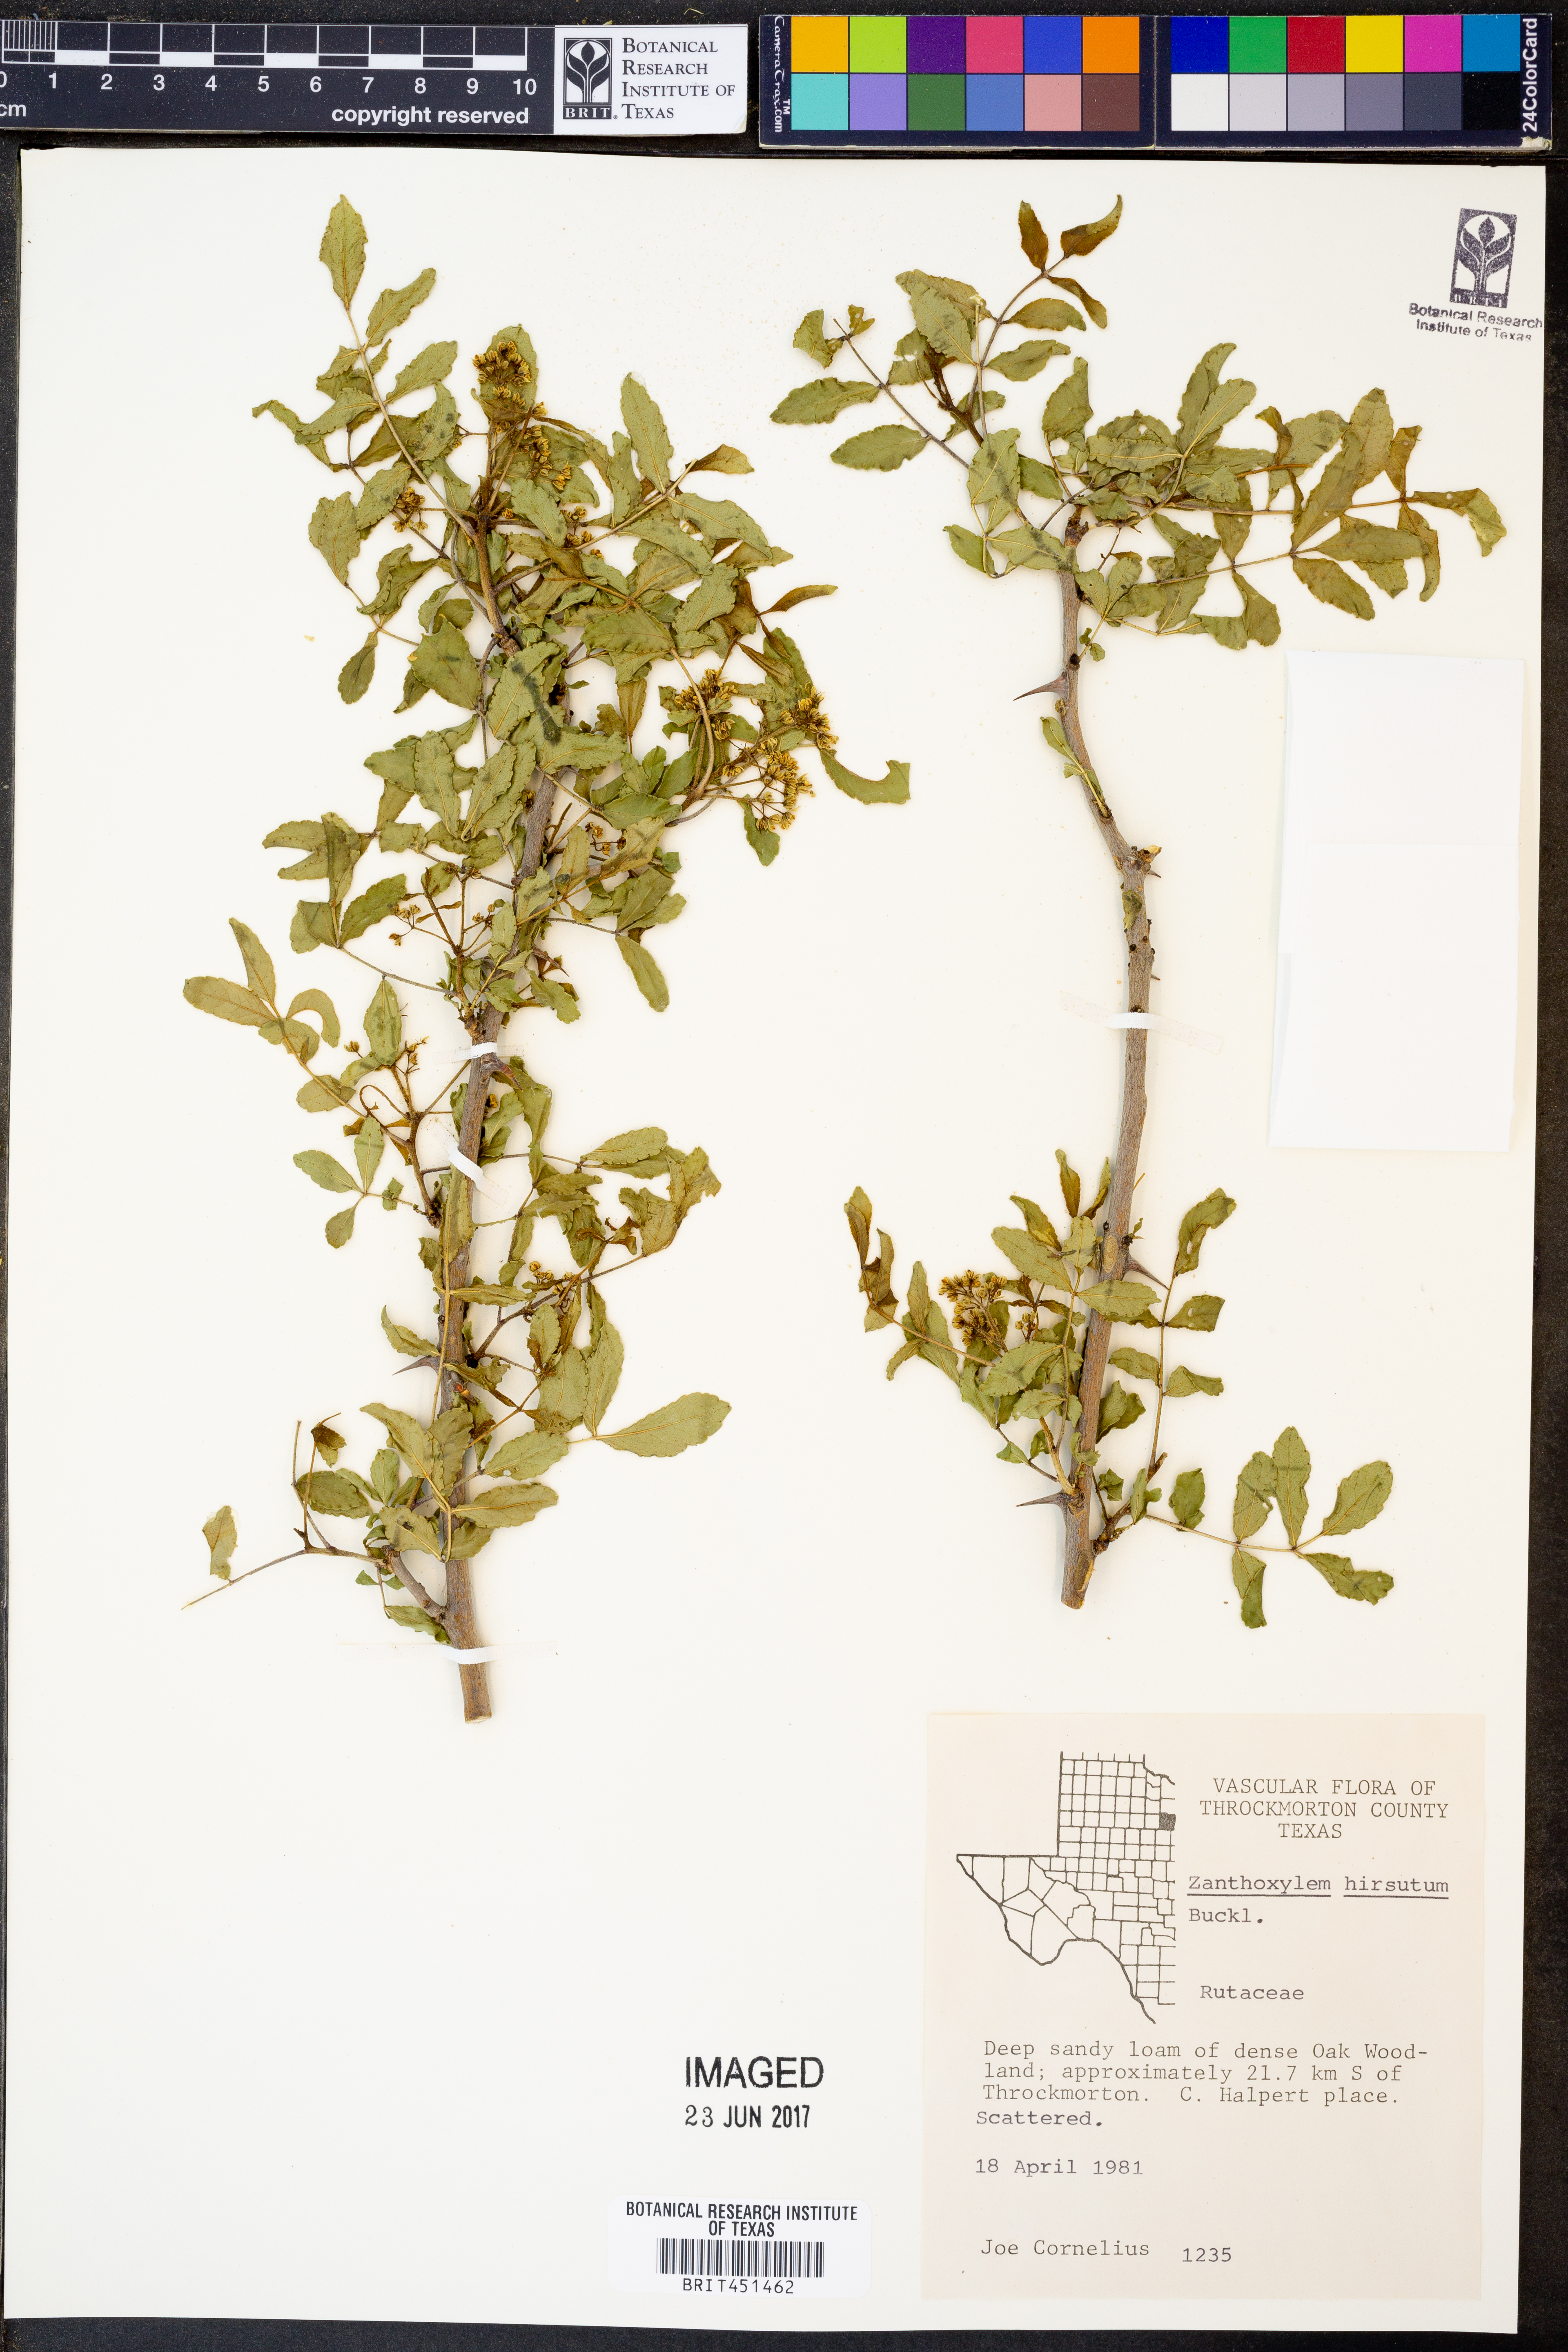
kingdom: Plantae
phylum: Tracheophyta
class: Magnoliopsida
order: Sapindales
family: Rutaceae
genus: Zanthoxylum
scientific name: Zanthoxylum clava-herculis
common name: Hercules'-club
